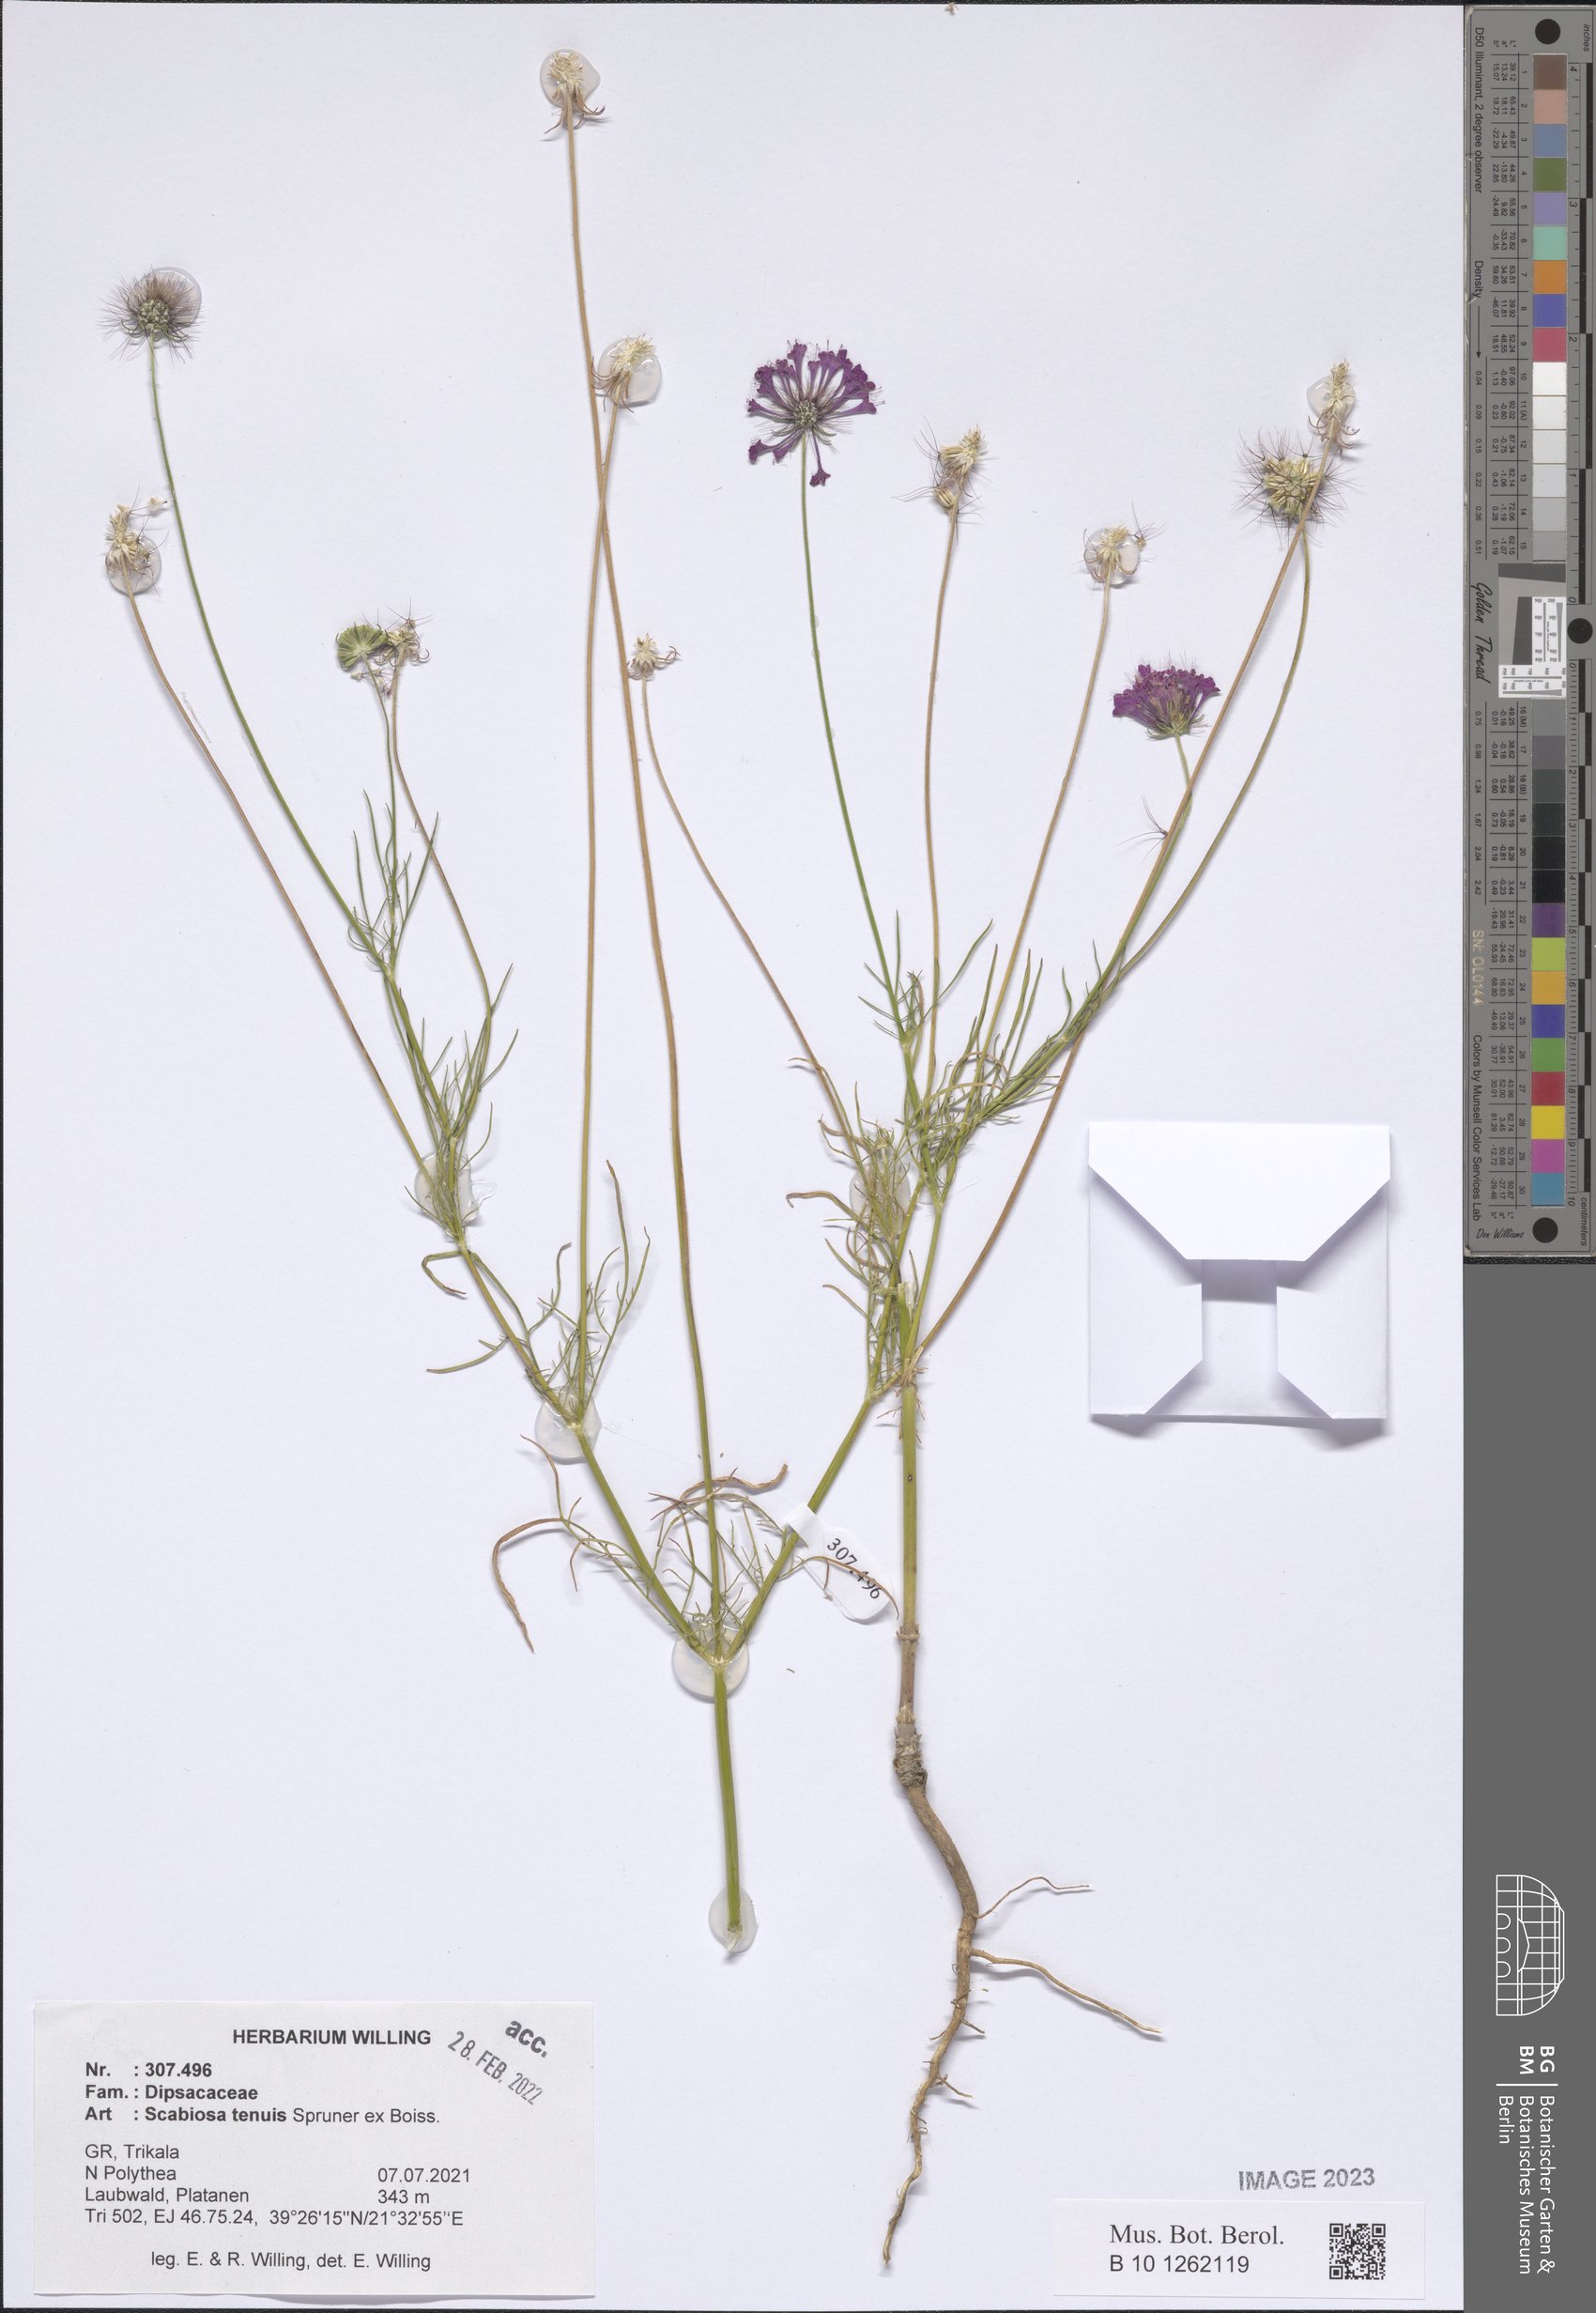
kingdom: Plantae
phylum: Tracheophyta
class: Magnoliopsida
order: Dipsacales
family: Caprifoliaceae
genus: Scabiosa
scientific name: Scabiosa tenuis
